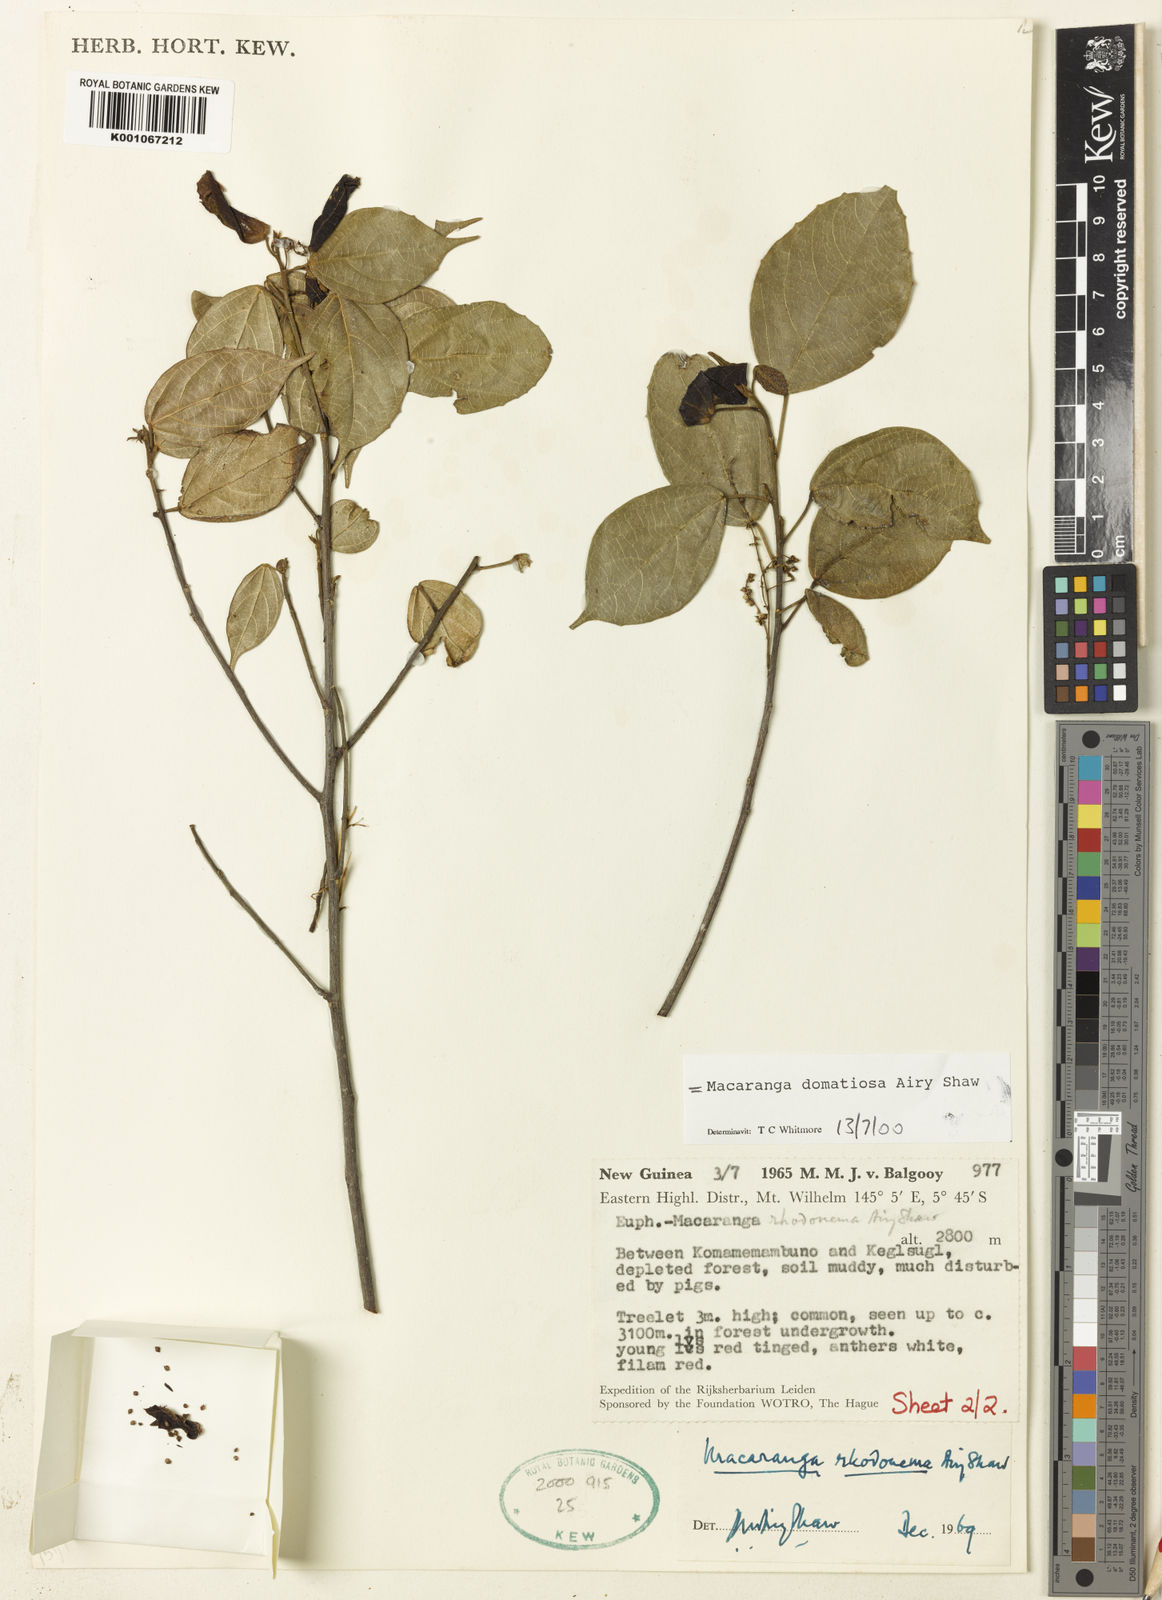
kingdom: Plantae
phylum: Tracheophyta
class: Magnoliopsida
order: Malpighiales
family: Euphorbiaceae
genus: Macaranga
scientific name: Macaranga domatiosa
